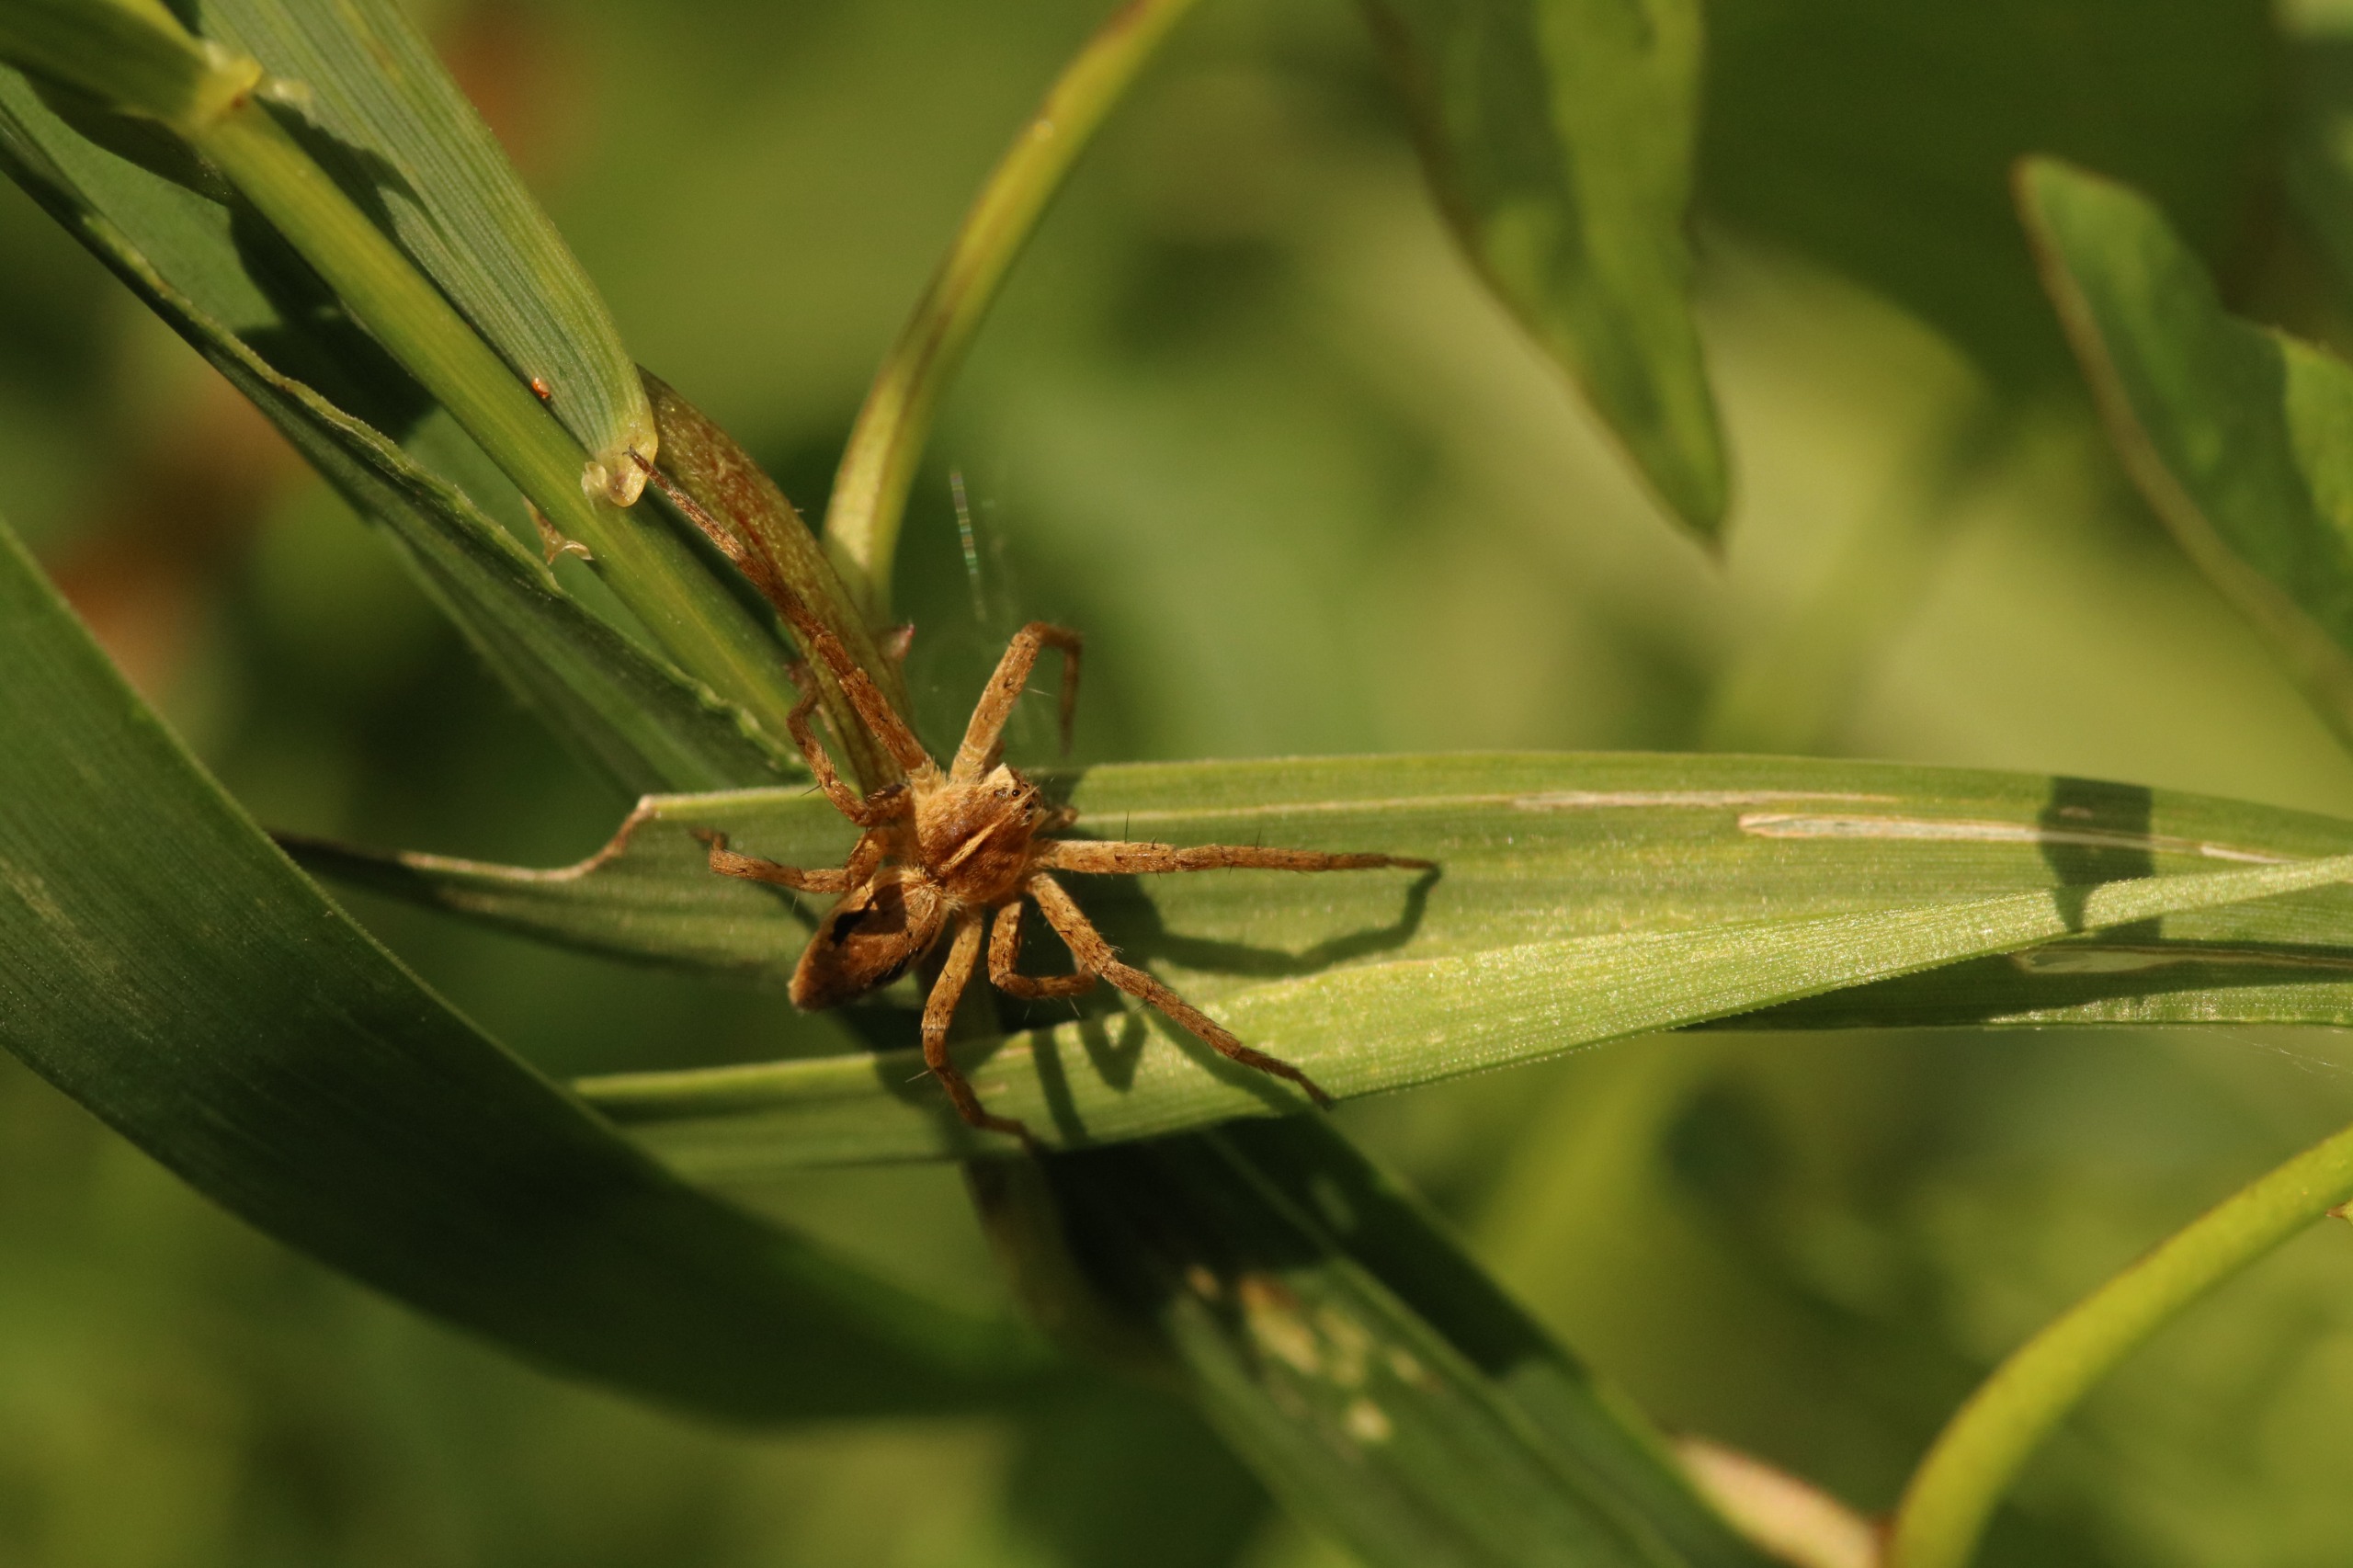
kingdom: Animalia
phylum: Arthropoda
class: Arachnida
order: Araneae
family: Pisauridae
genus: Pisaura
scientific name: Pisaura mirabilis
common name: Almindelig rovedderkop
